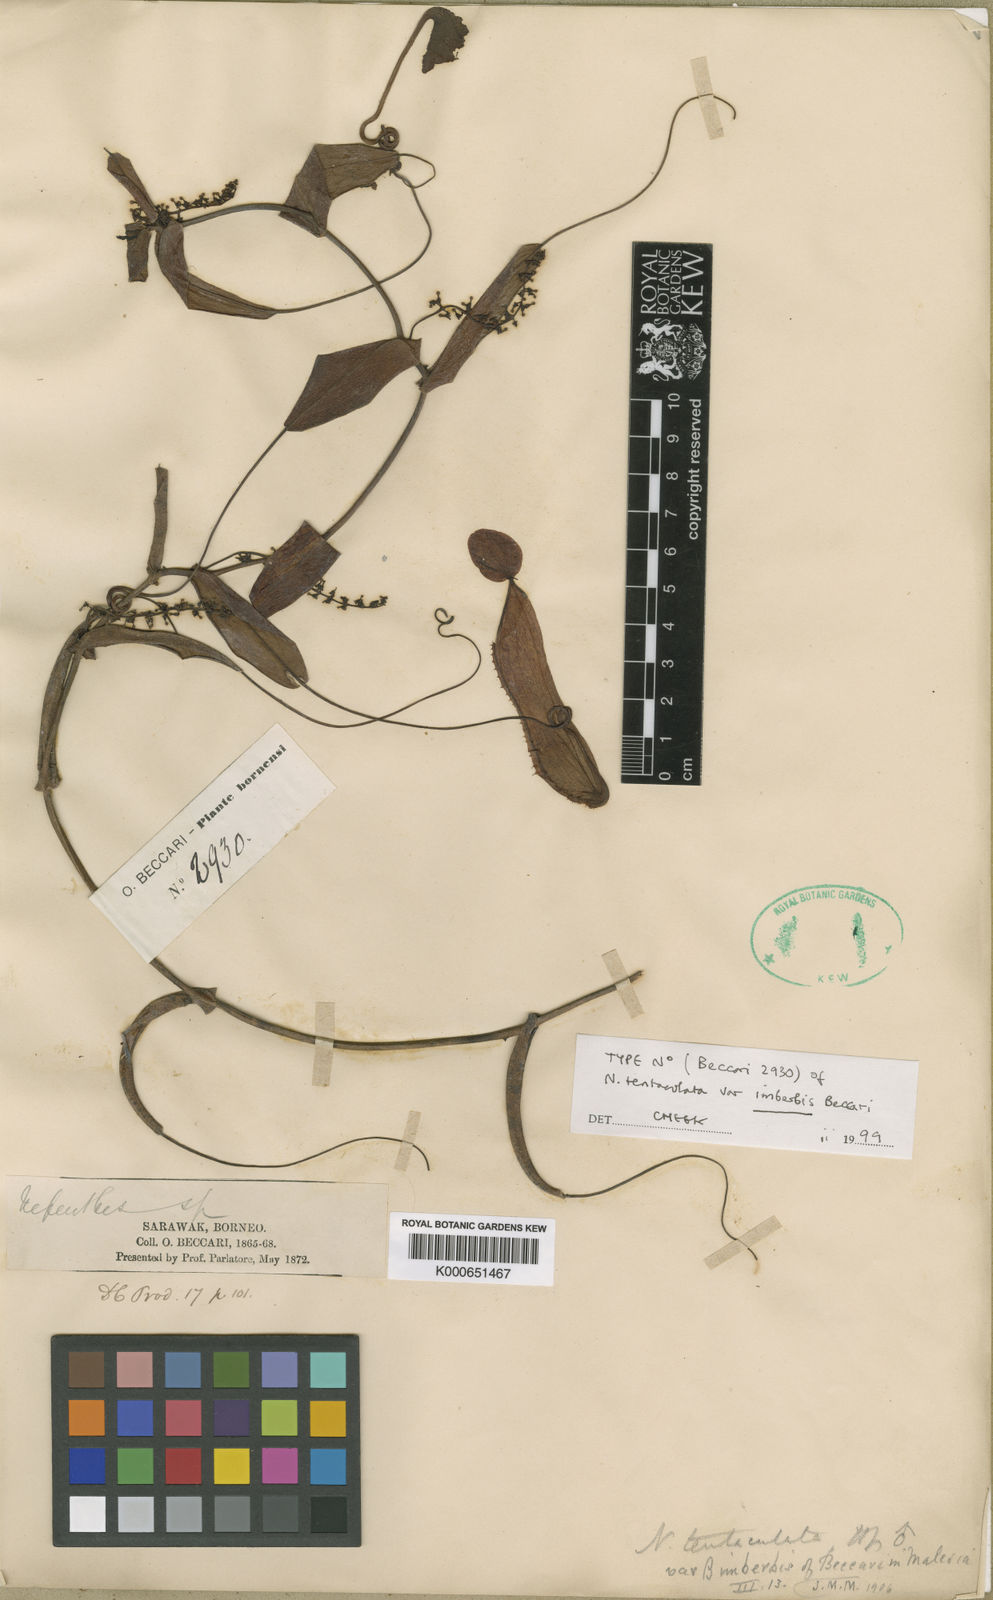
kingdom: Plantae
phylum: Tracheophyta
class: Magnoliopsida
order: Caryophyllales
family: Nepenthaceae
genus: Nepenthes
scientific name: Nepenthes tentaculata
